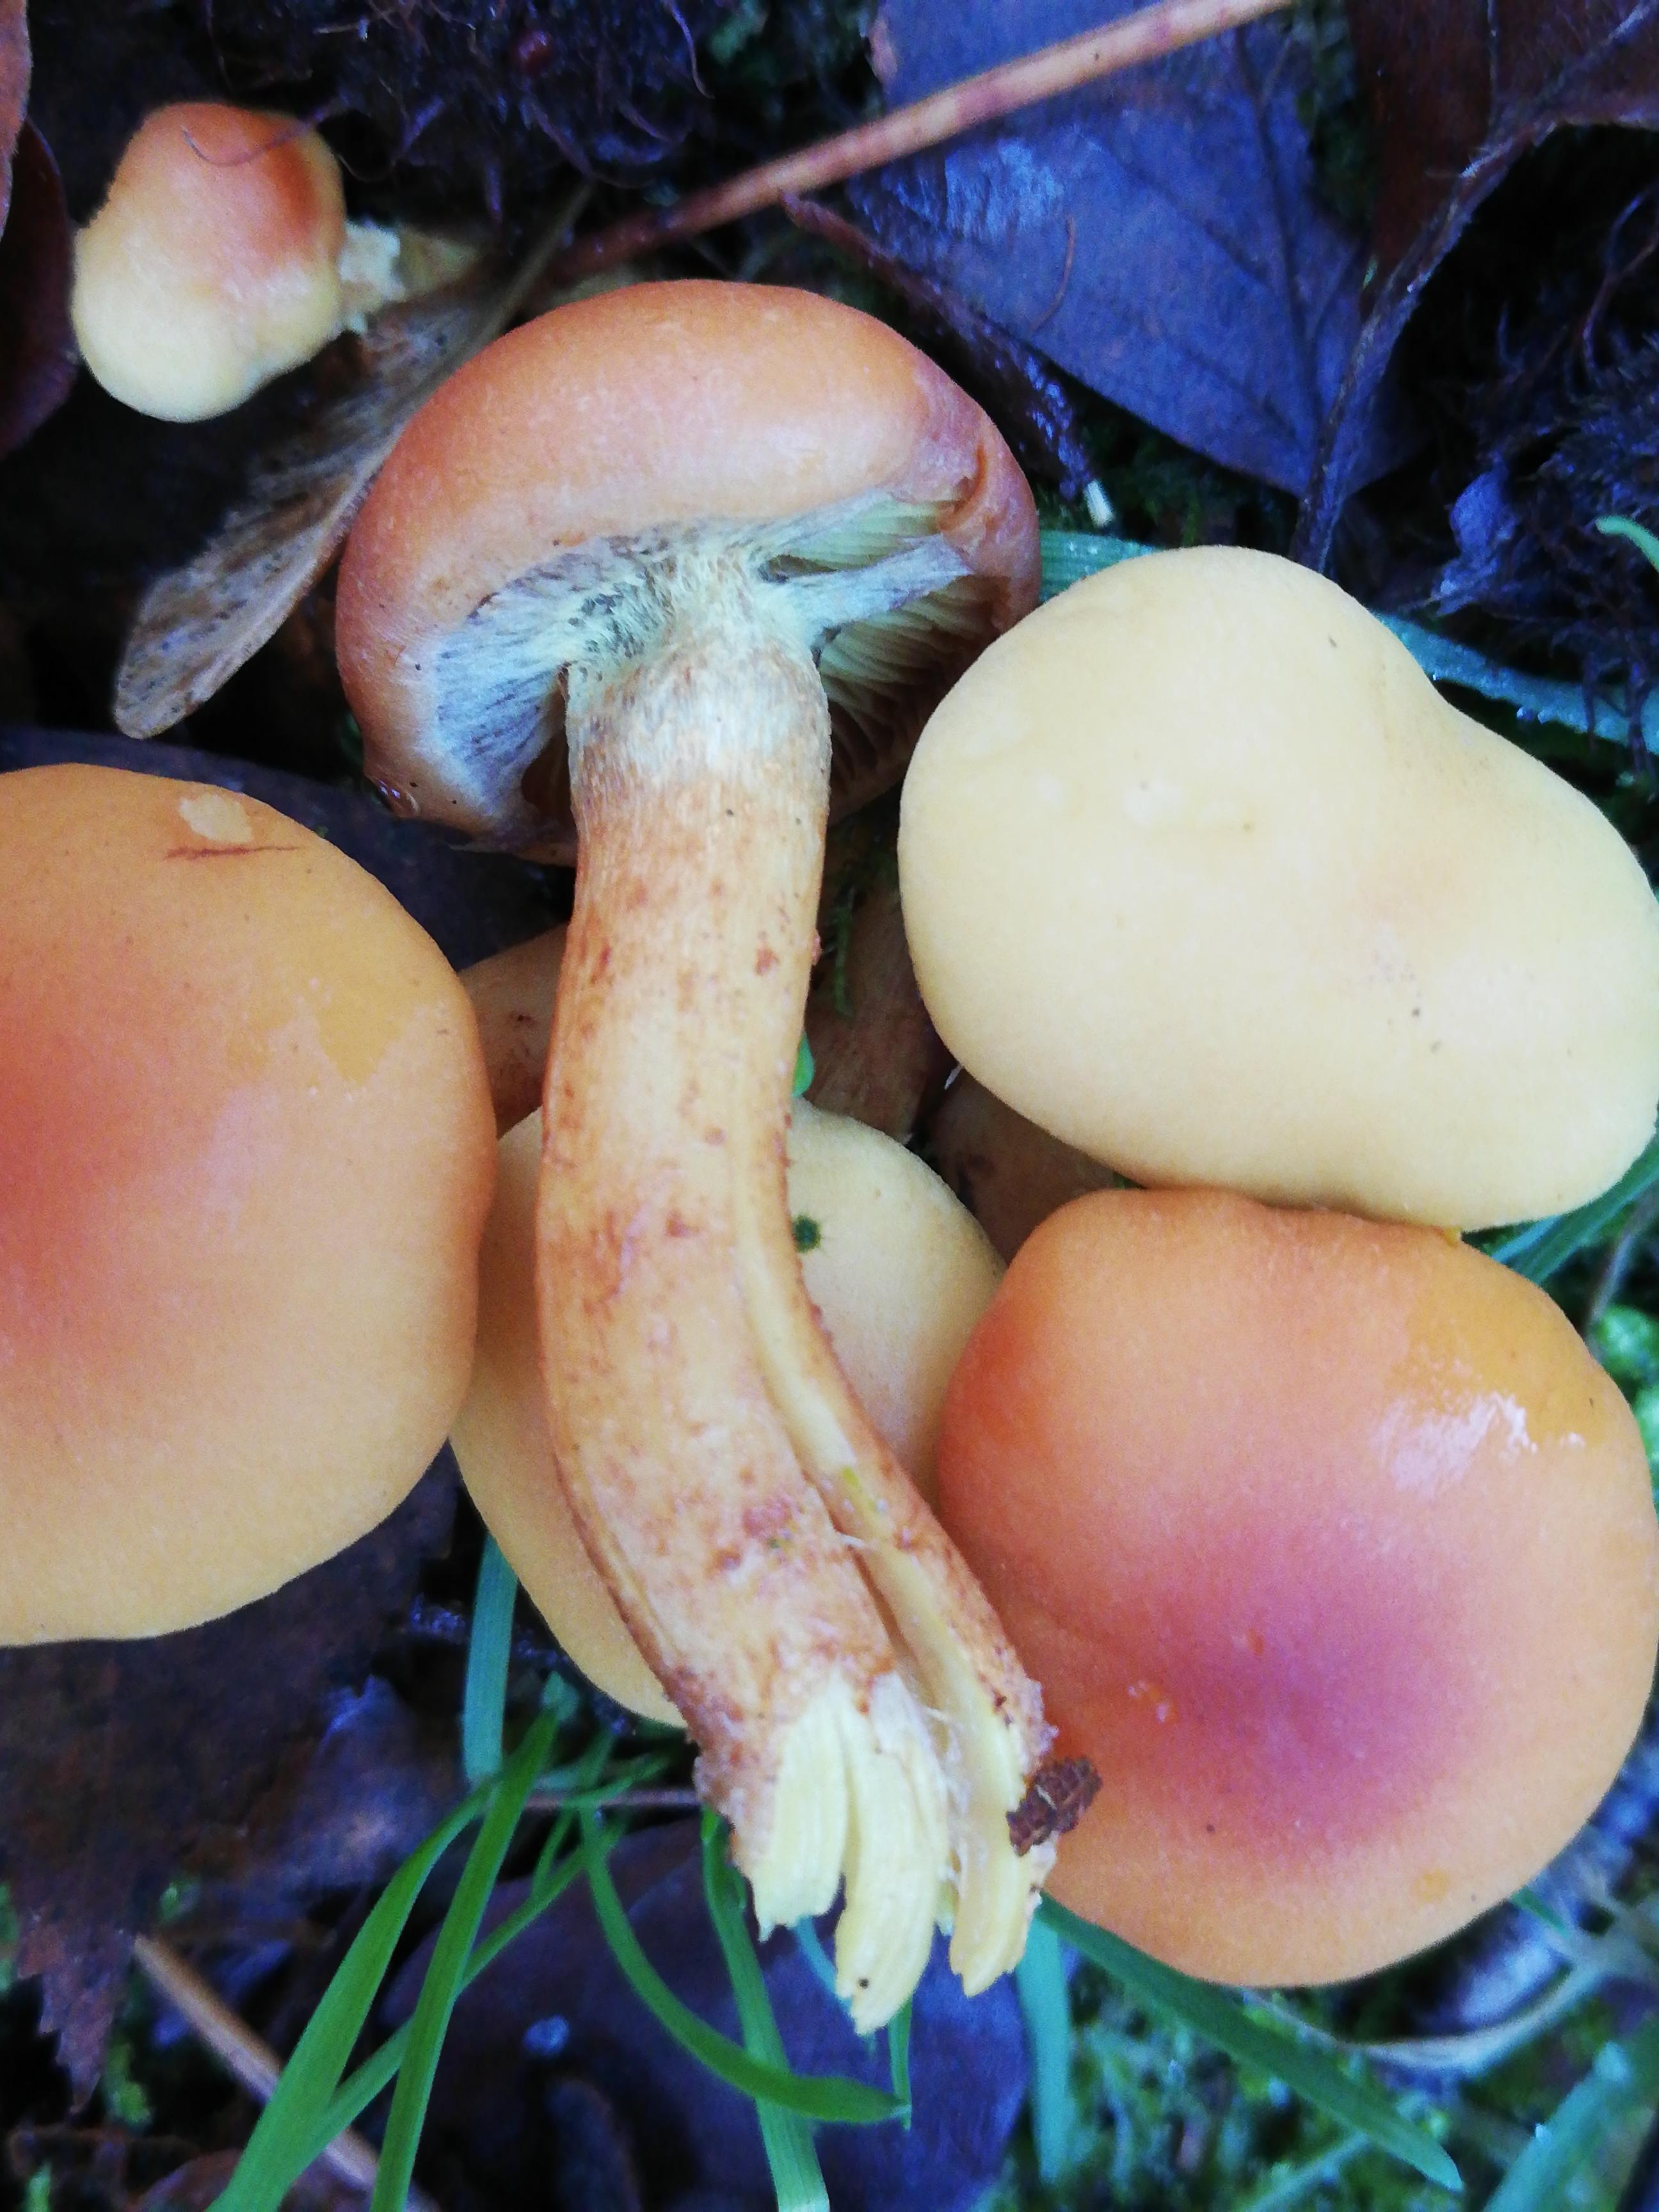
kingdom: Fungi
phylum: Basidiomycota
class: Agaricomycetes
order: Agaricales
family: Strophariaceae
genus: Hypholoma
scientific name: Hypholoma fasciculare
